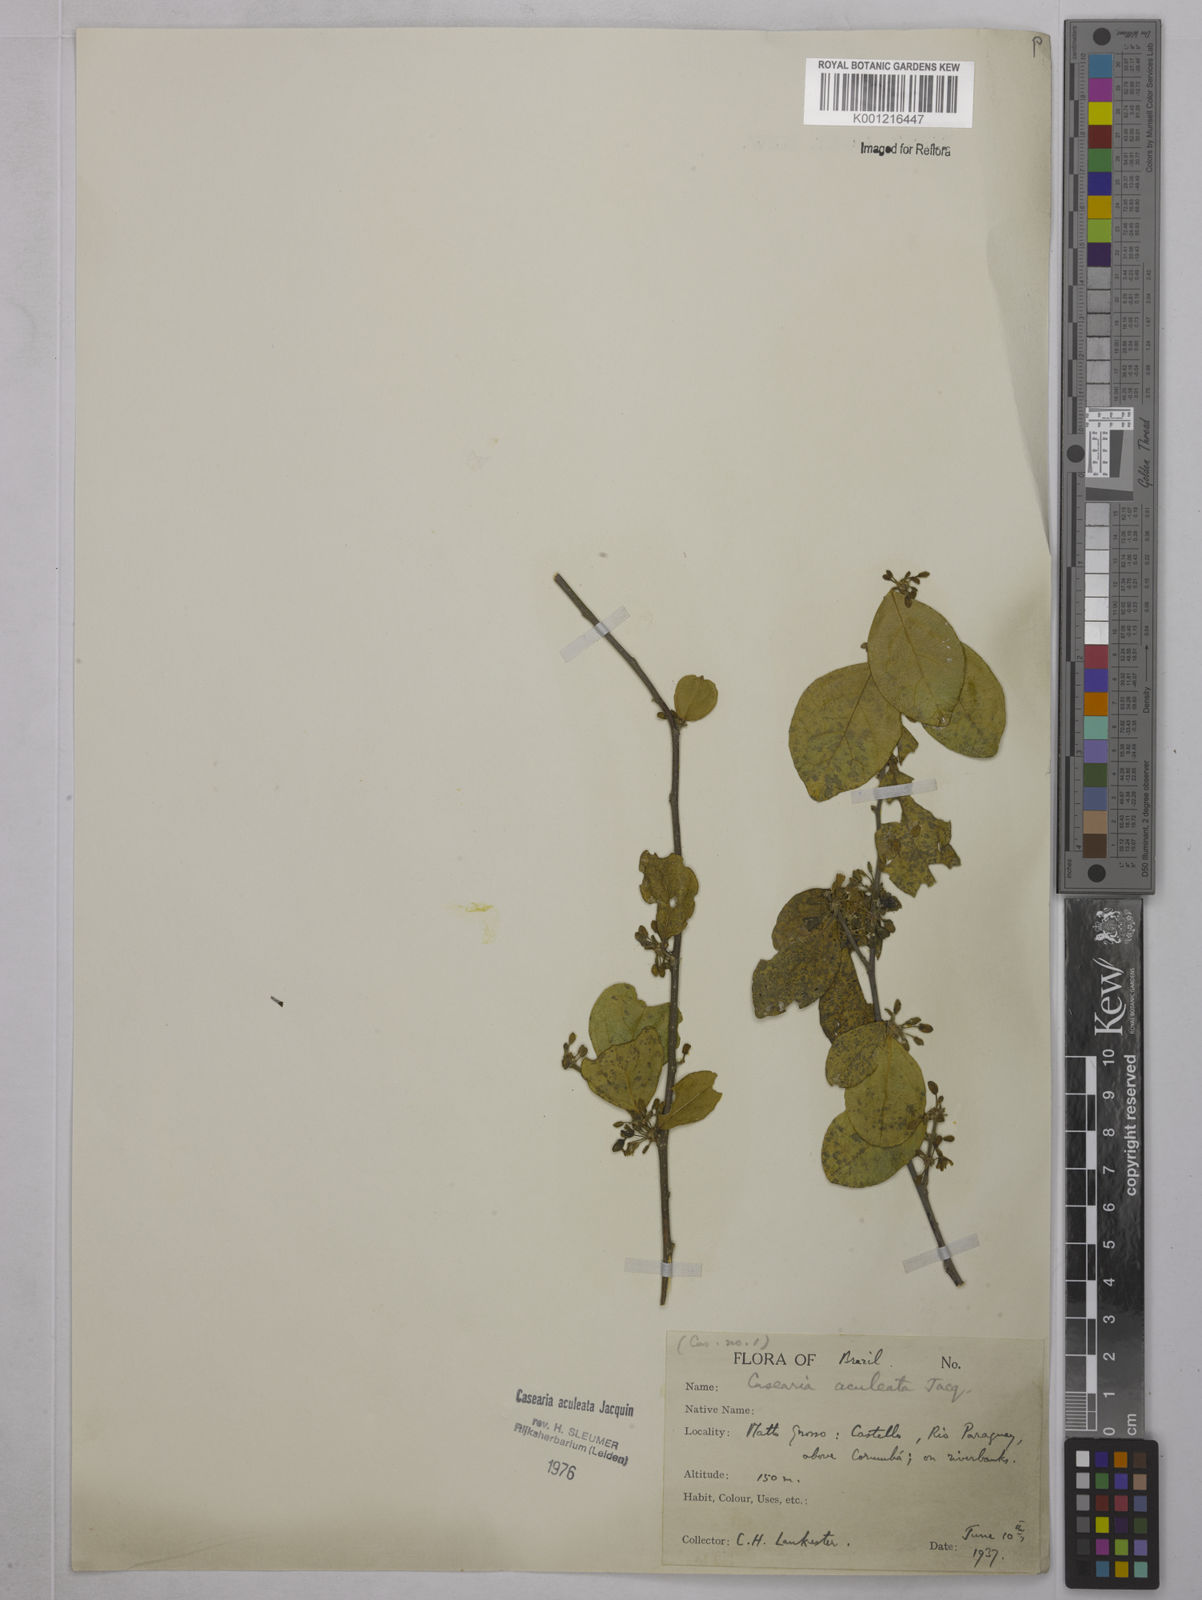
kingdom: Plantae
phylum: Tracheophyta
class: Magnoliopsida
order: Malpighiales
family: Salicaceae
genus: Casearia
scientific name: Casearia aculeata
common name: Cockspur
